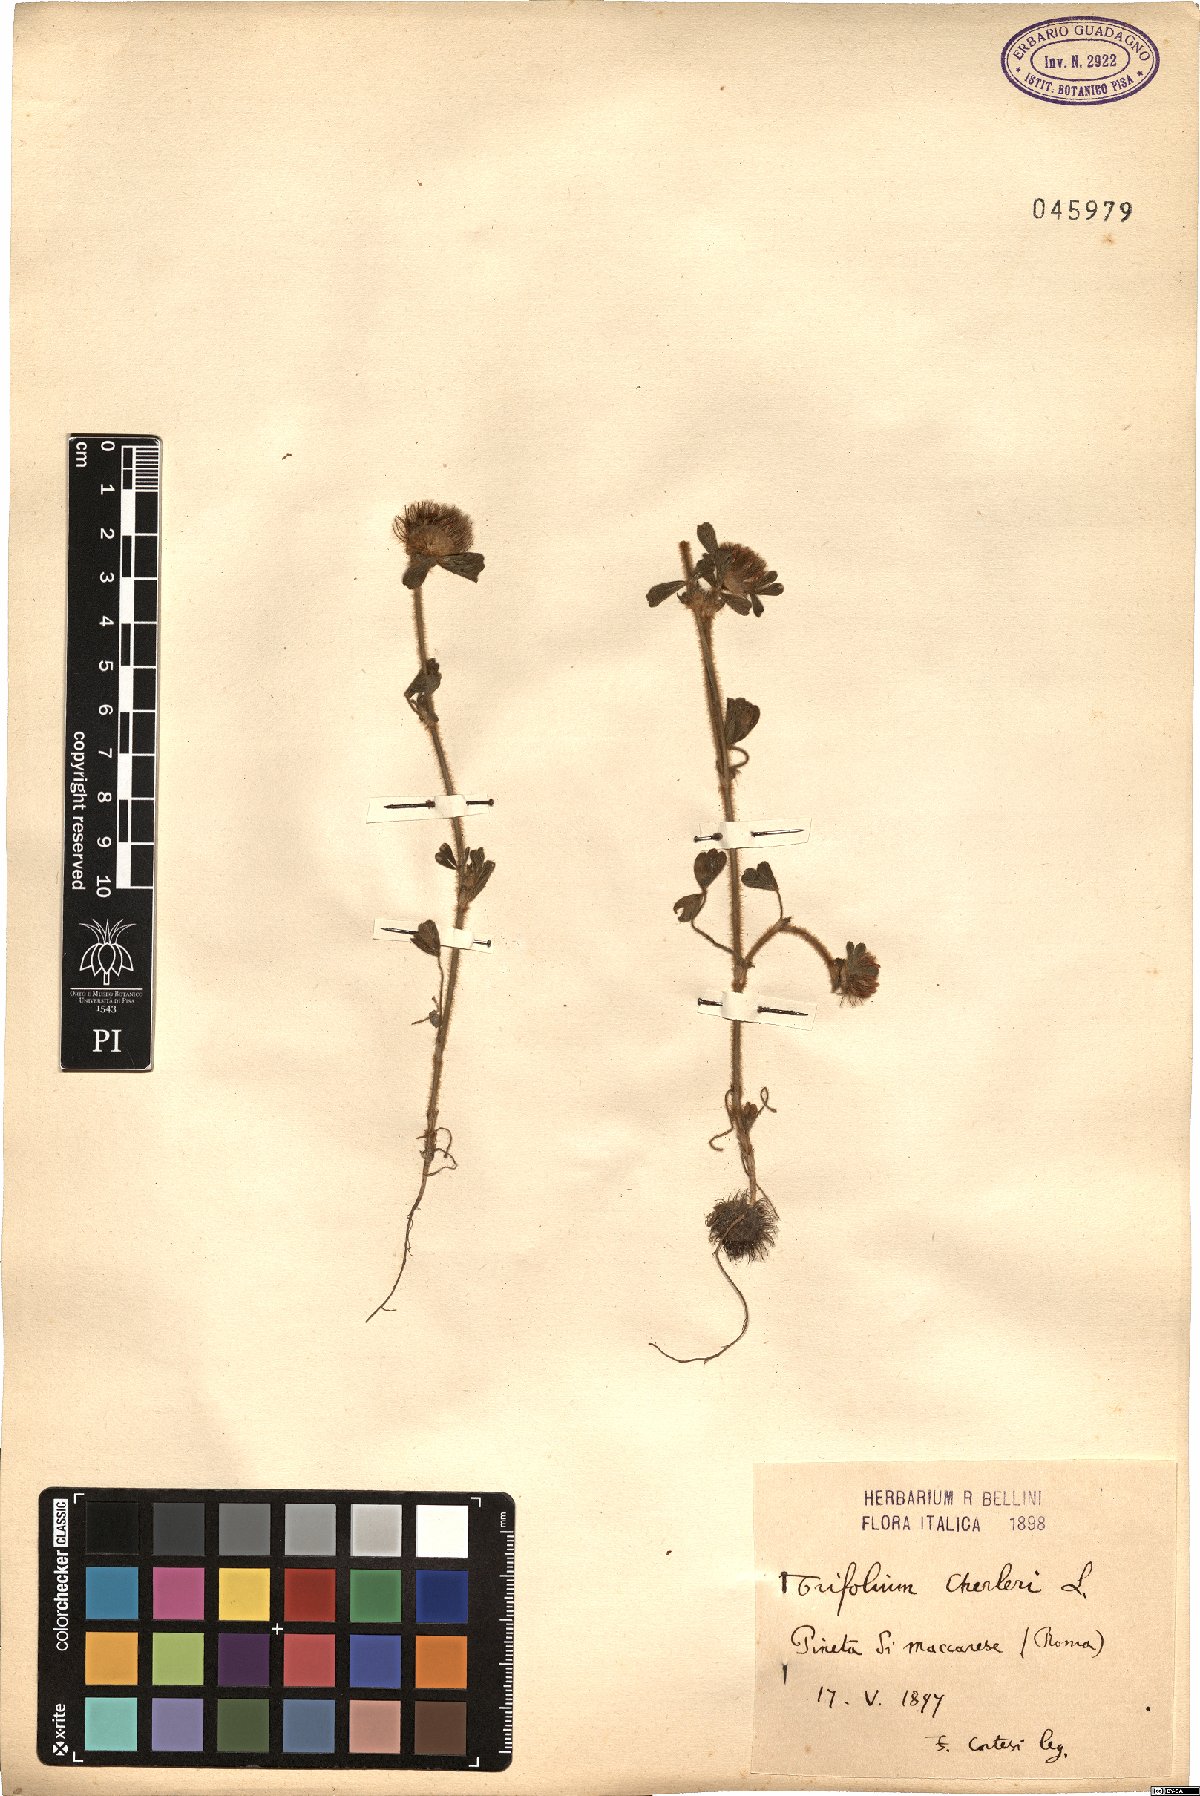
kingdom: Plantae
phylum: Tracheophyta
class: Magnoliopsida
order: Fabales
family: Fabaceae
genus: Trifolium
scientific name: Trifolium cherleri
